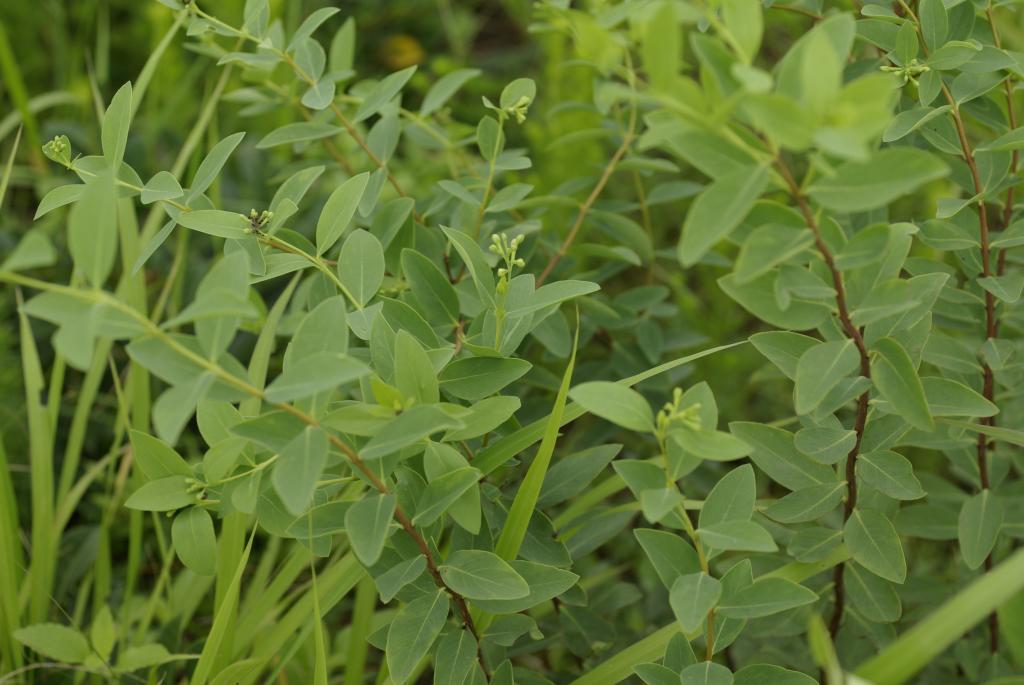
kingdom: Plantae
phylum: Tracheophyta
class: Magnoliopsida
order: Malvales
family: Thymelaeaceae
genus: Wikstroemia
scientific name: Wikstroemia indica
